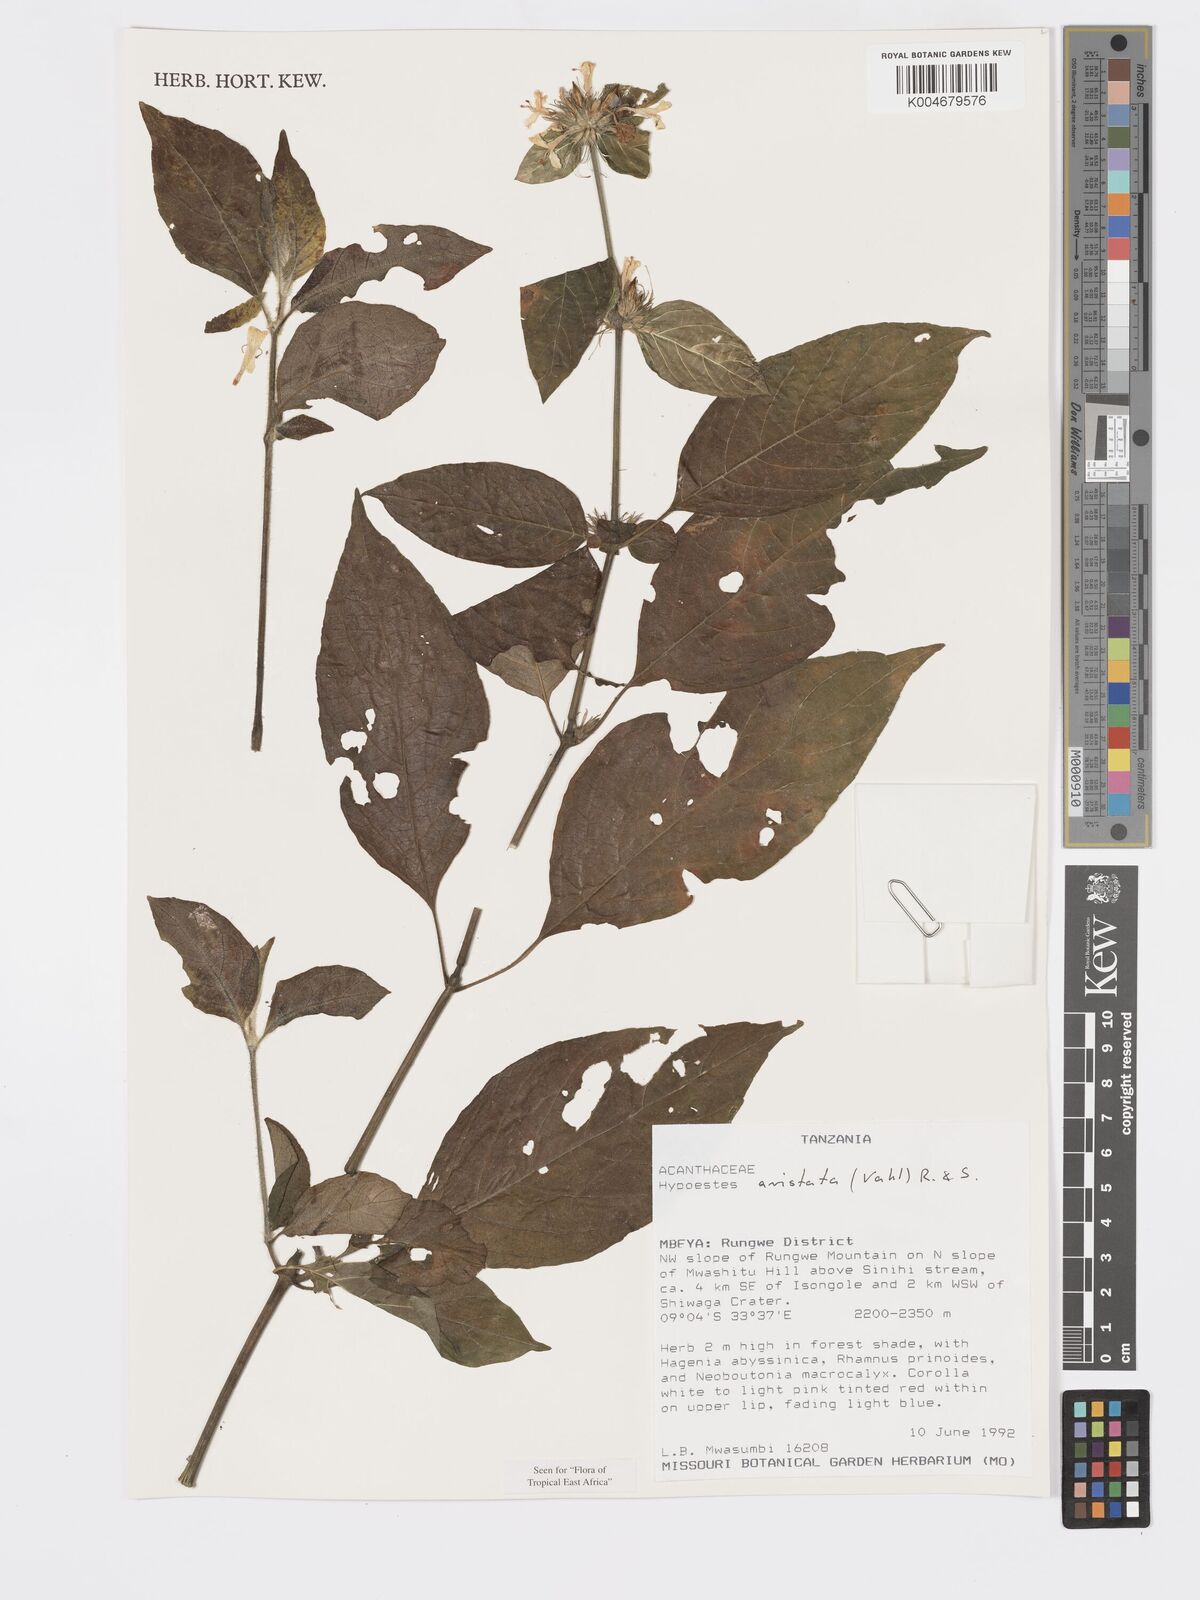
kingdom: Plantae
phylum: Tracheophyta
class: Magnoliopsida
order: Lamiales
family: Acanthaceae
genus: Hypoestes
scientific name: Hypoestes aristata
